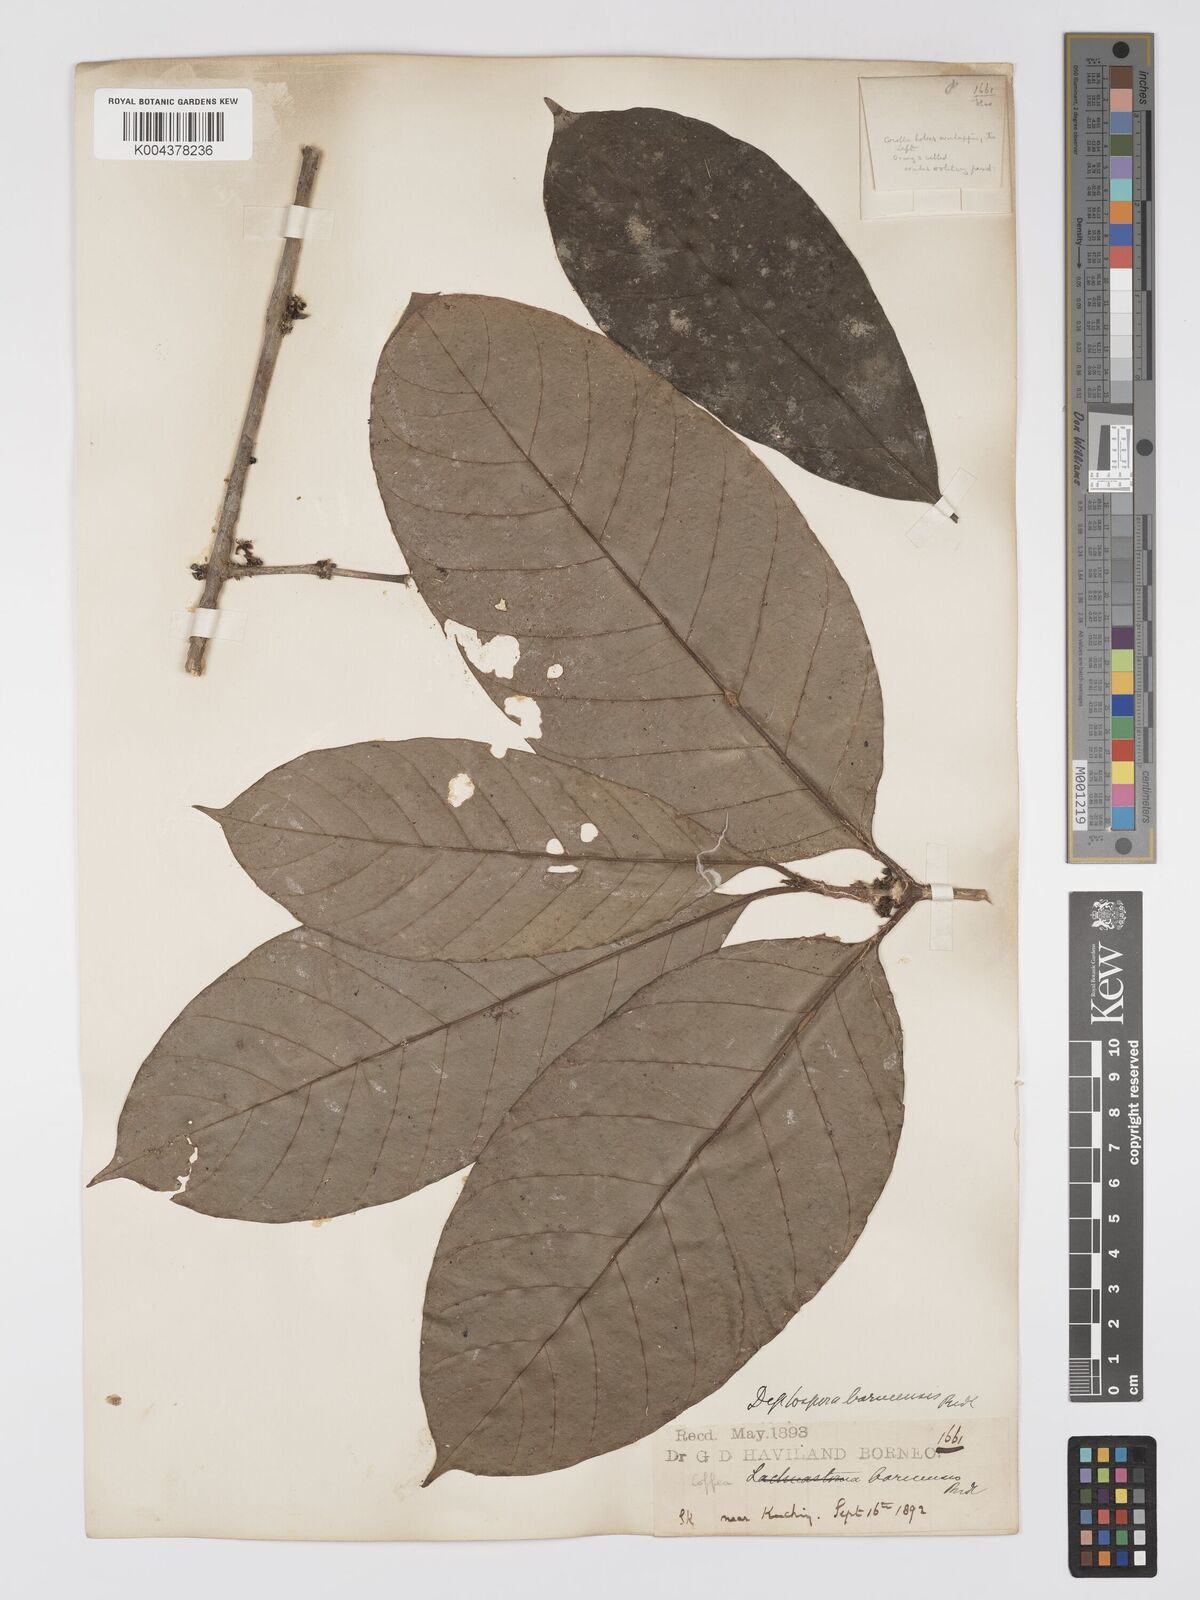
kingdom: Plantae
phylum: Tracheophyta
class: Magnoliopsida
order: Gentianales
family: Rubiaceae
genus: Diplospora
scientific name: Diplospora
